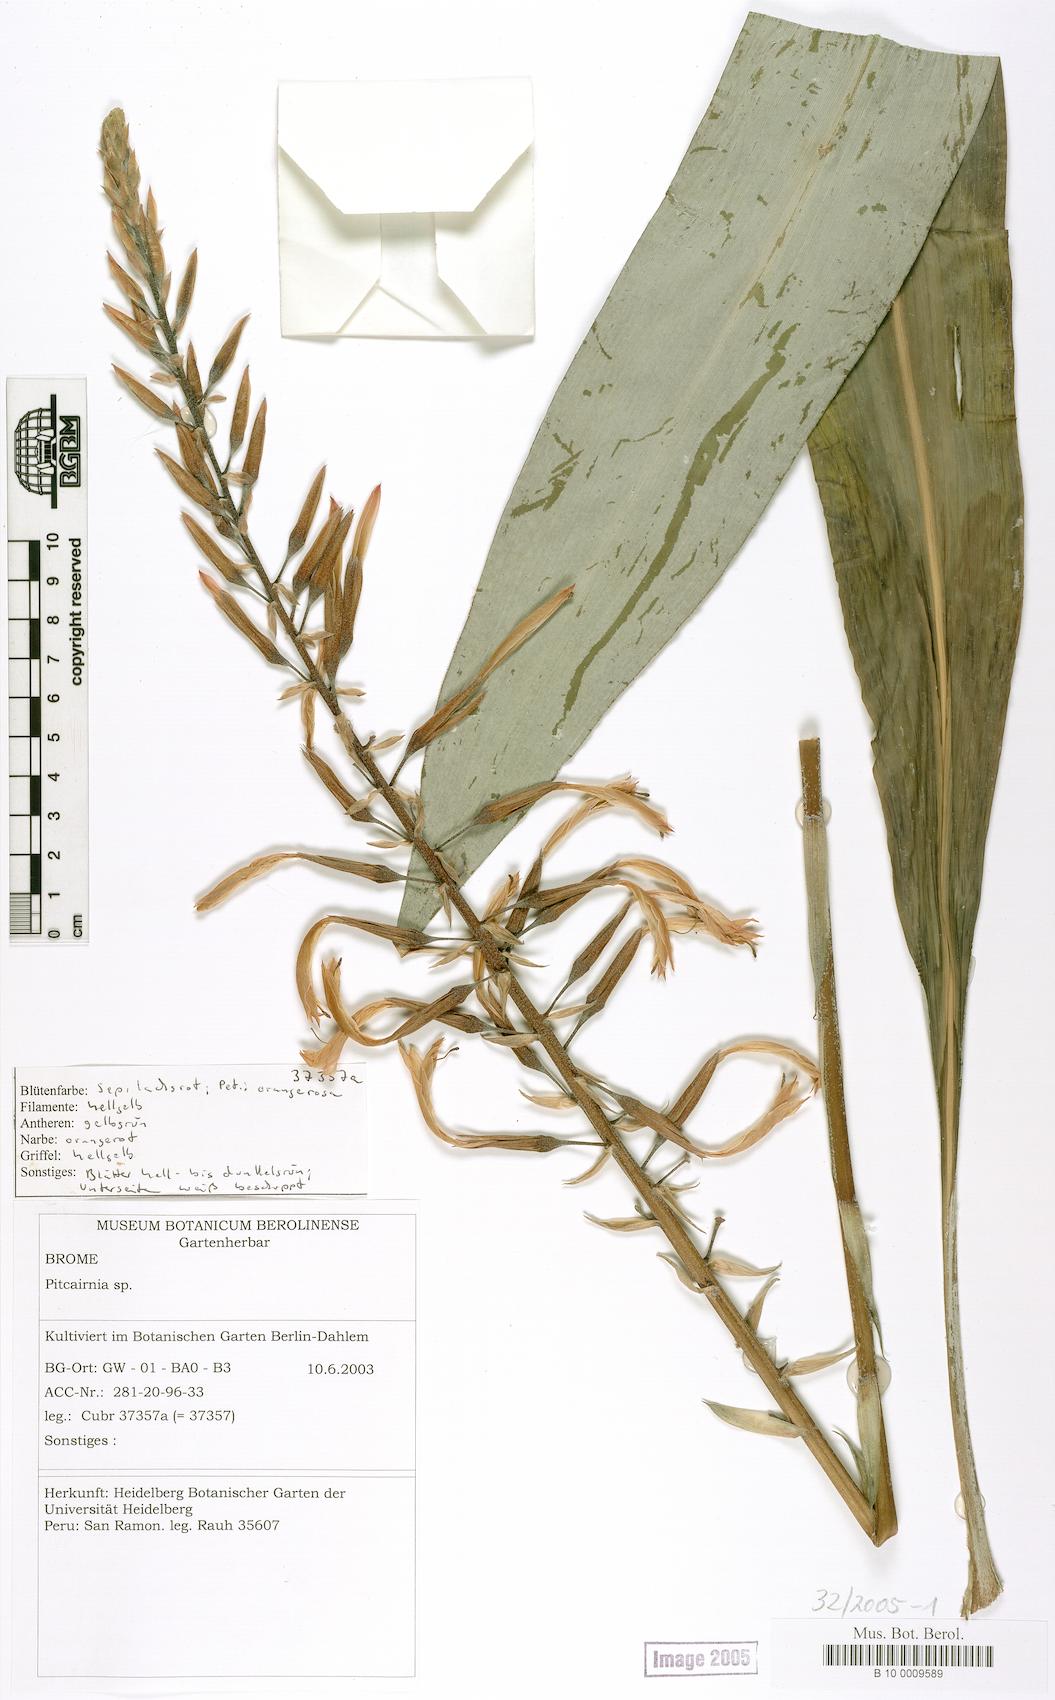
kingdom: Plantae
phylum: Tracheophyta
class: Liliopsida
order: Poales
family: Bromeliaceae
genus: Pitcairnia
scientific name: Pitcairnia
